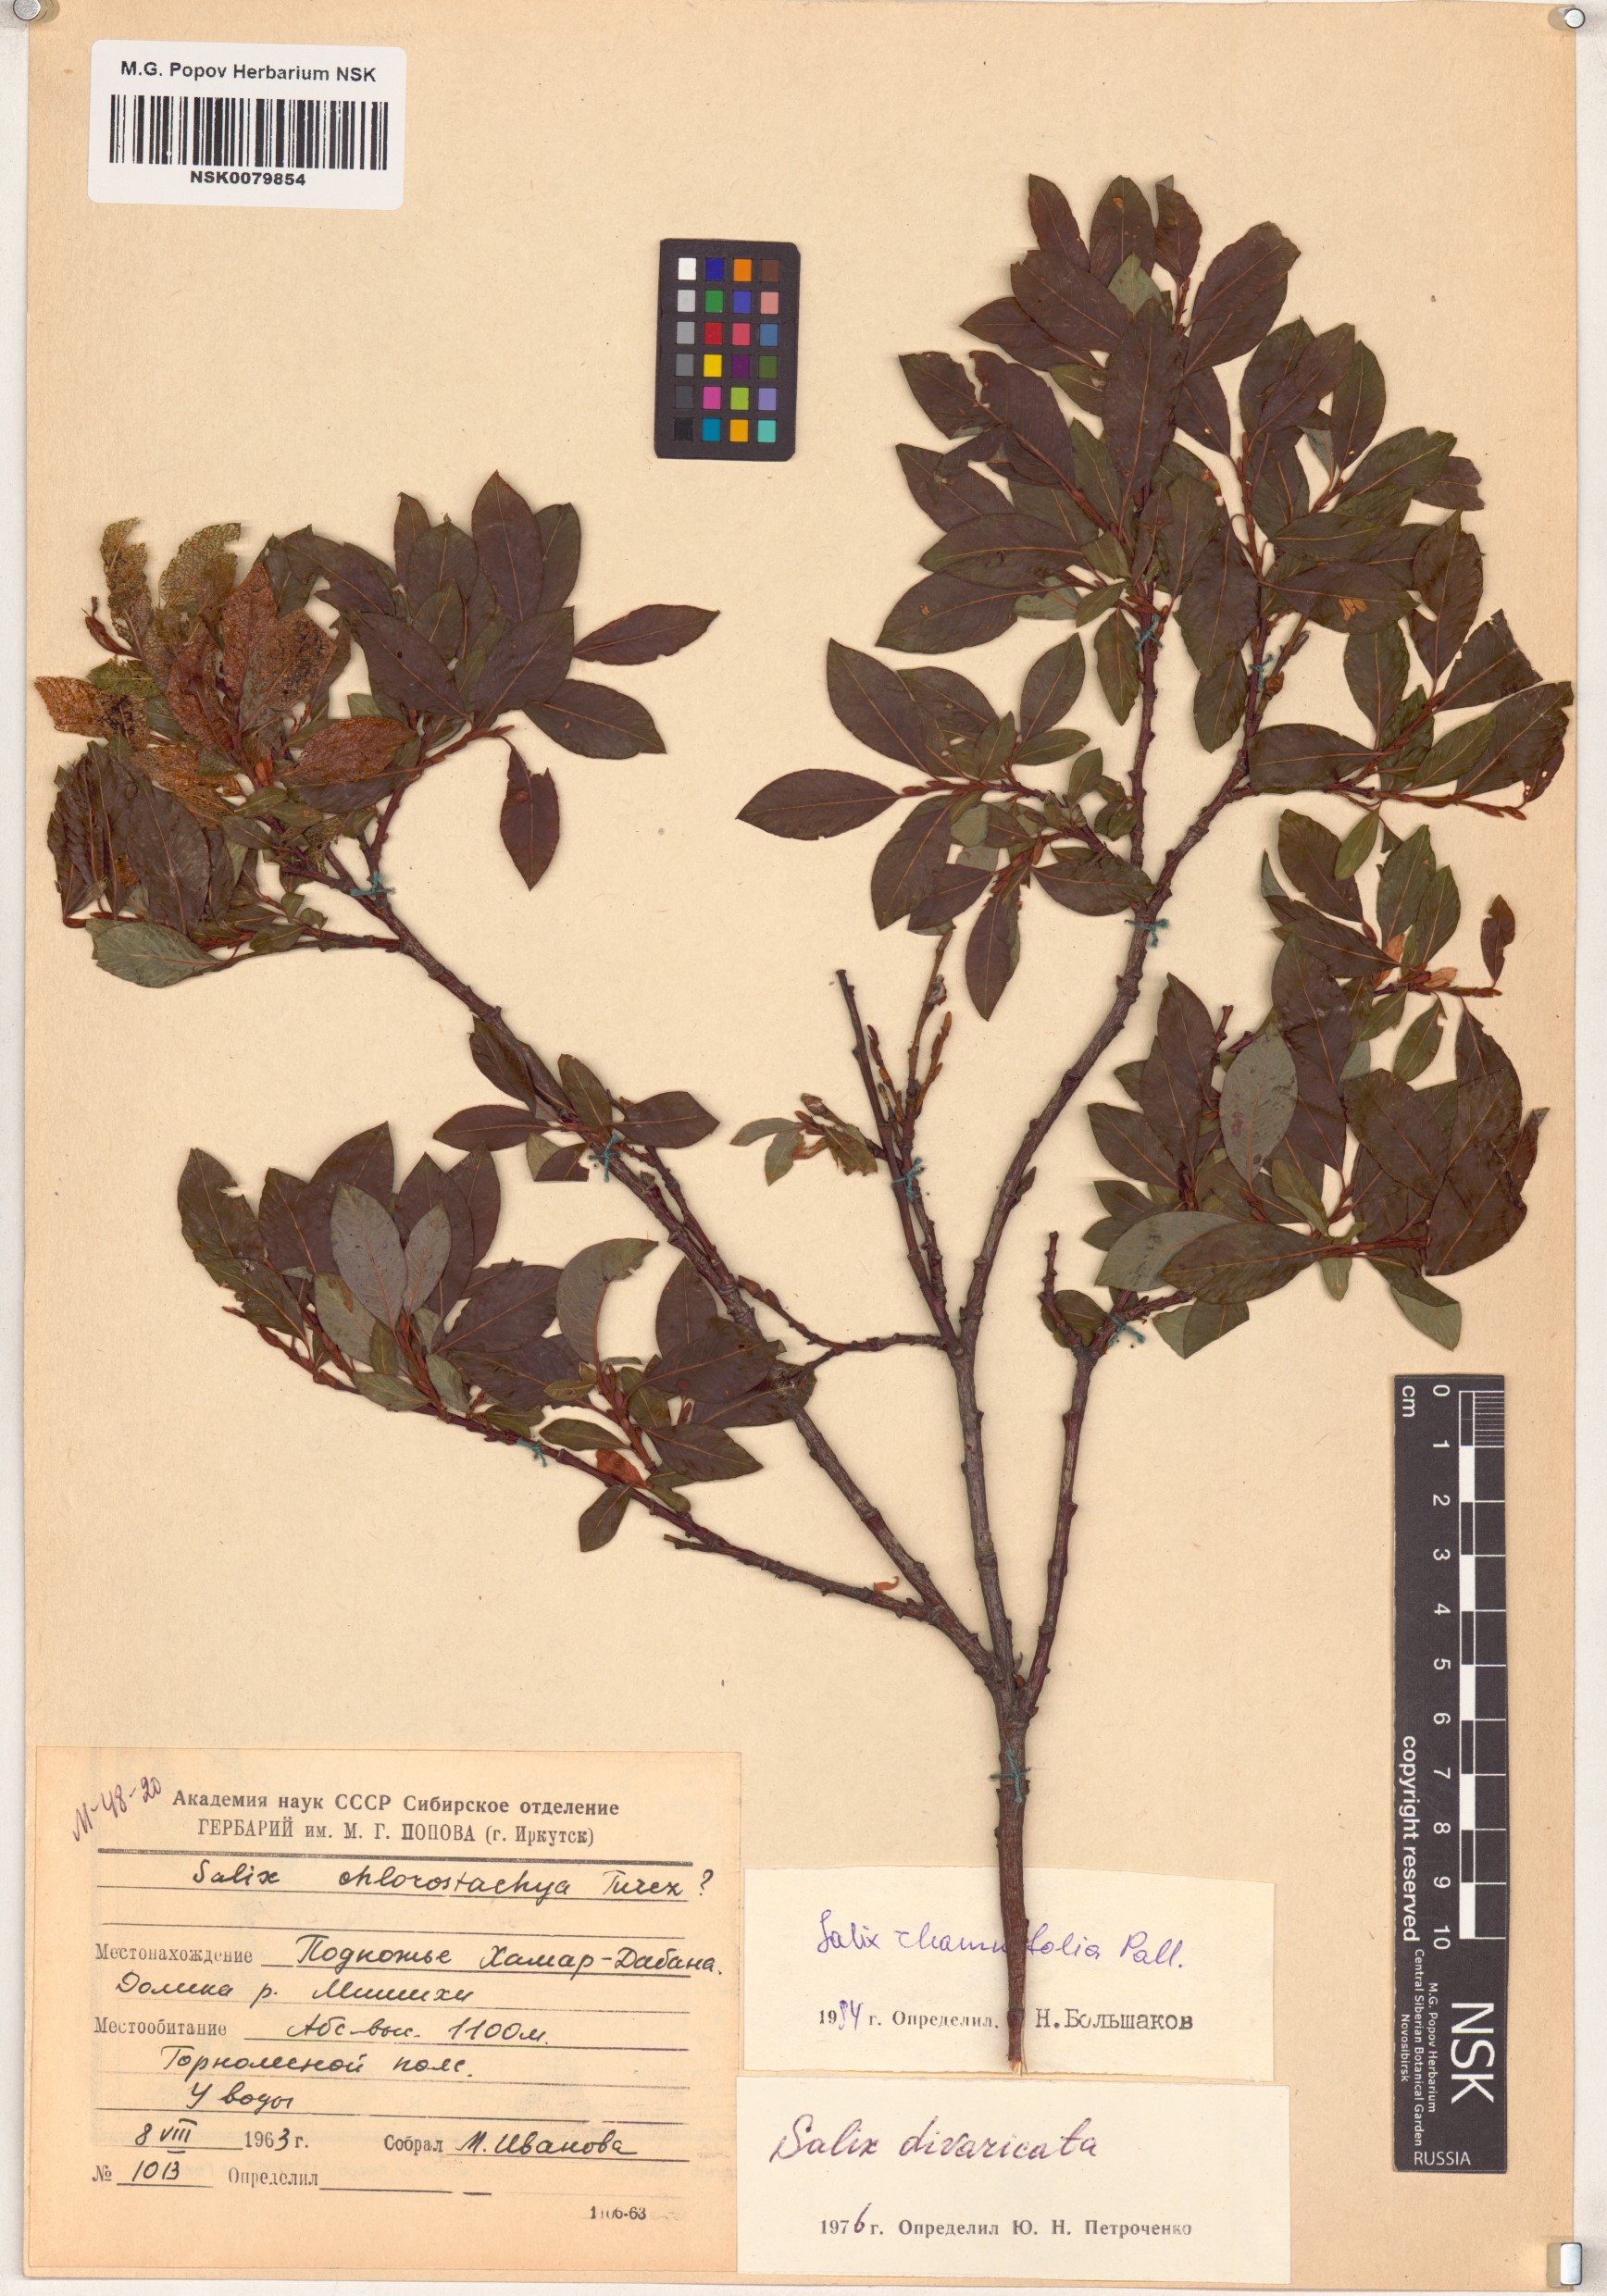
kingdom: Plantae
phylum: Tracheophyta
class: Magnoliopsida
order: Malpighiales
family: Salicaceae
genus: Salix
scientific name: Salix rhamnifolia
